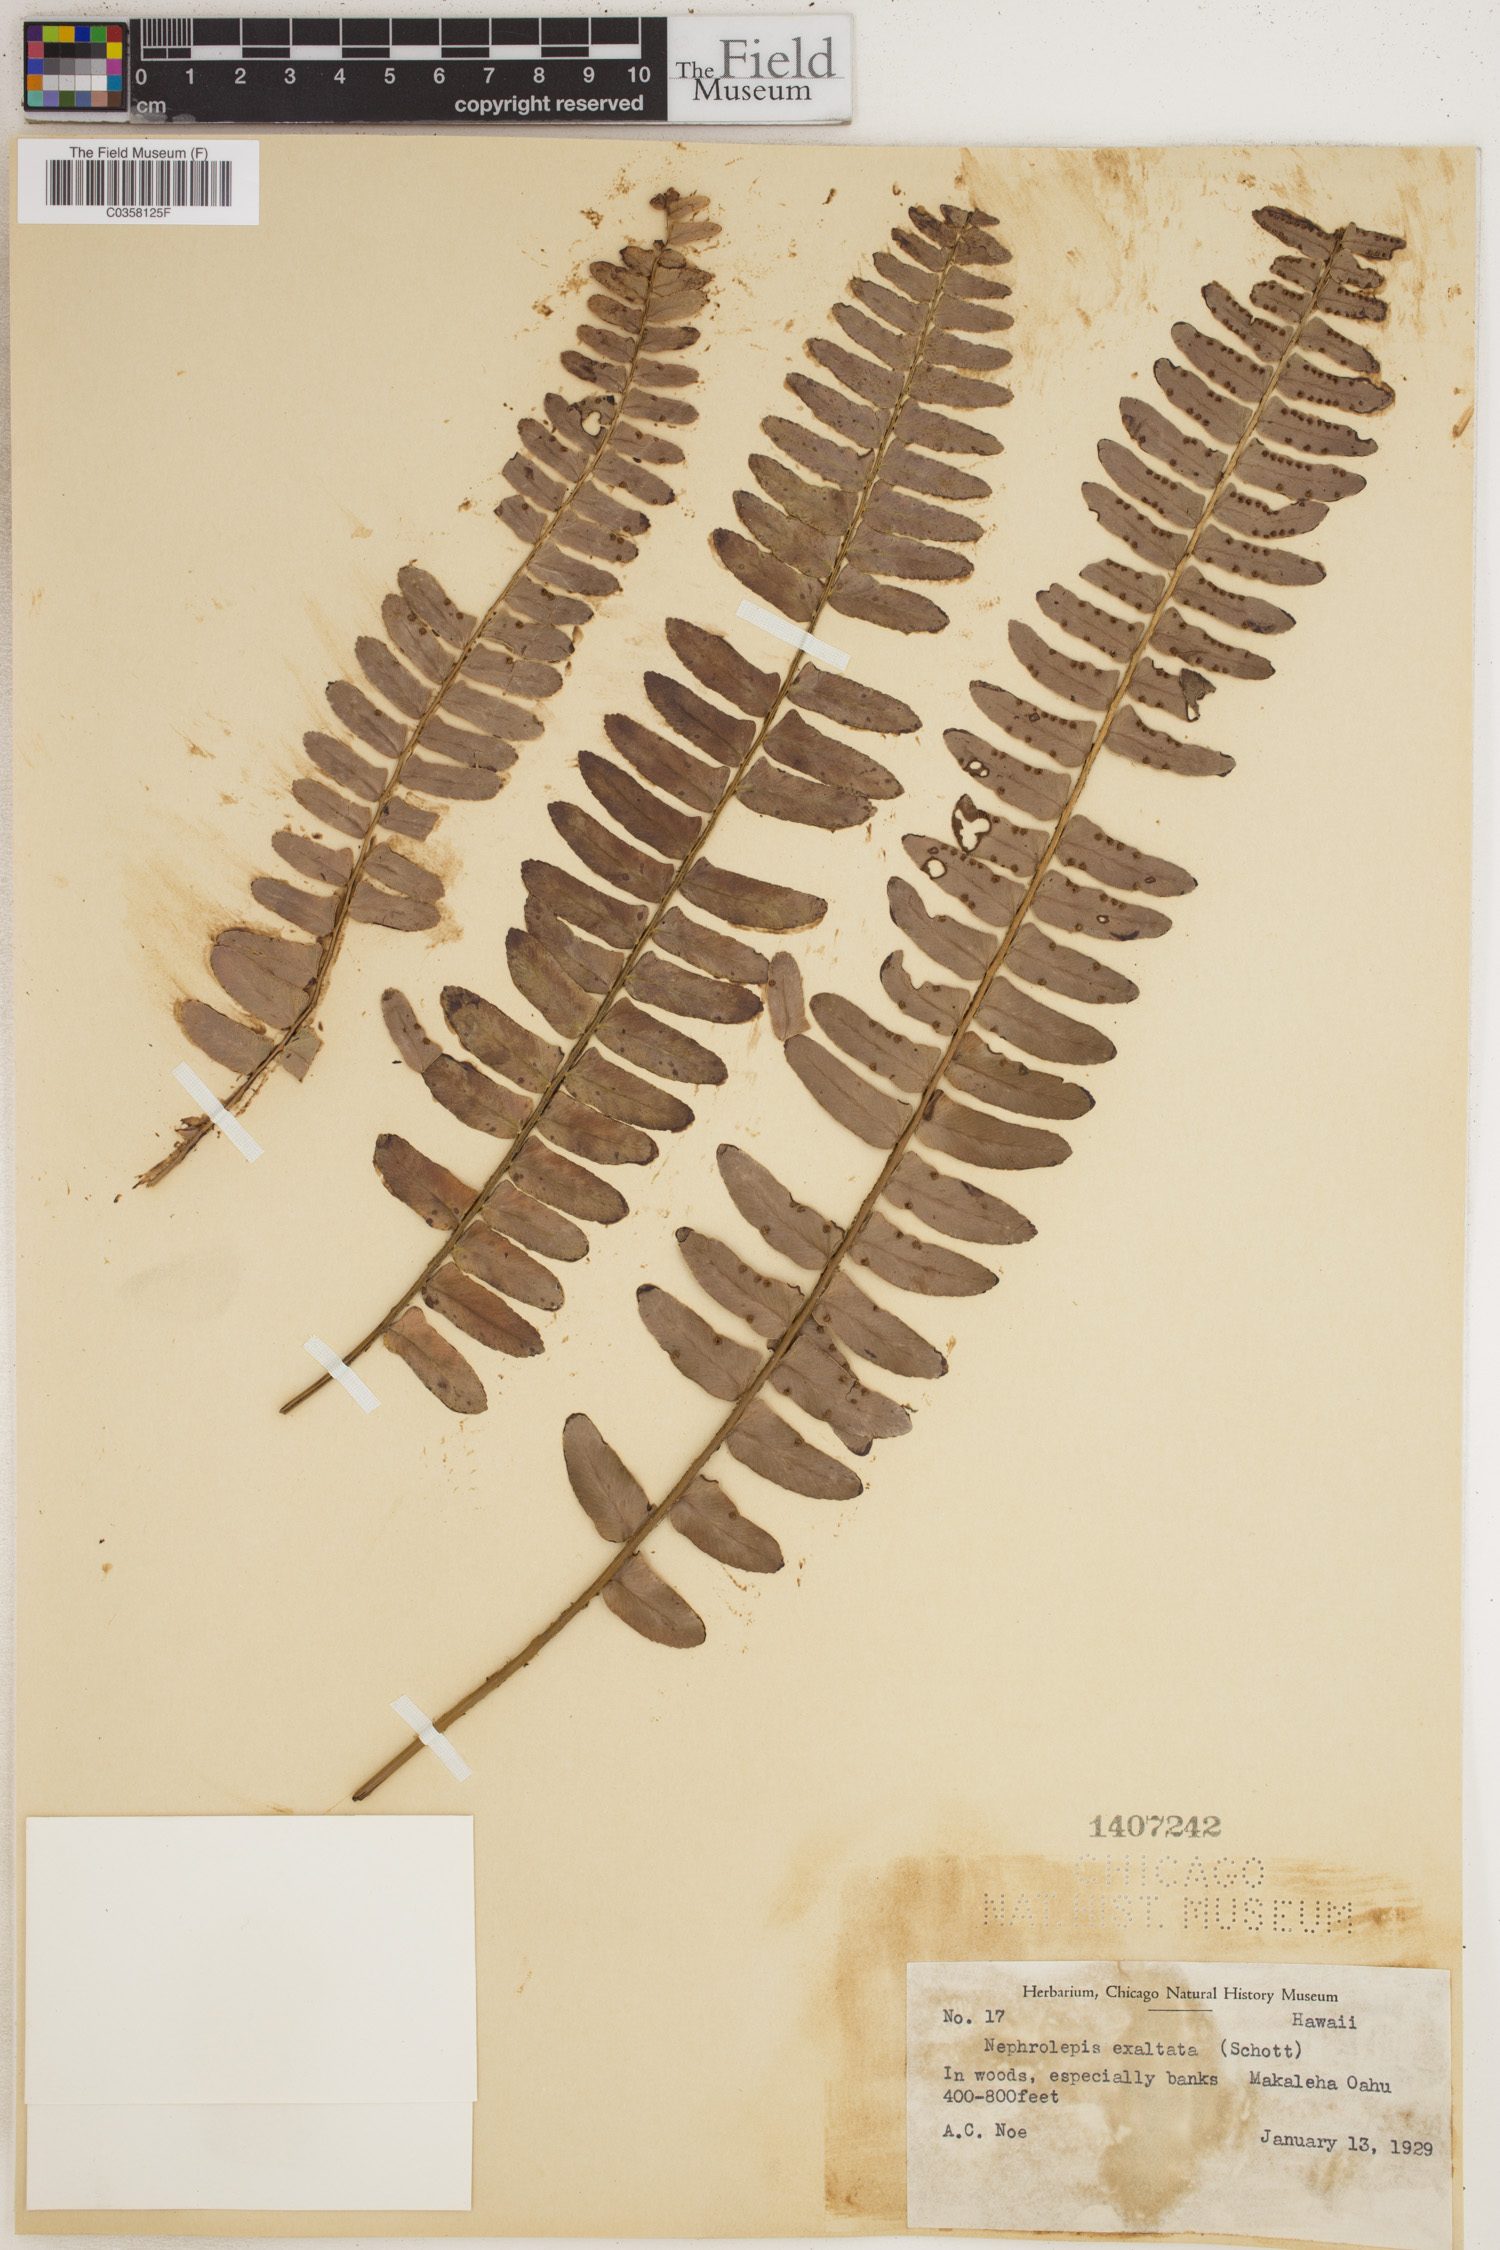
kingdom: Plantae
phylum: Tracheophyta
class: Polypodiopsida
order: Polypodiales
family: Nephrolepidaceae
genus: Nephrolepis
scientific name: Nephrolepis cordifolia
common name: Narrow swordfern
